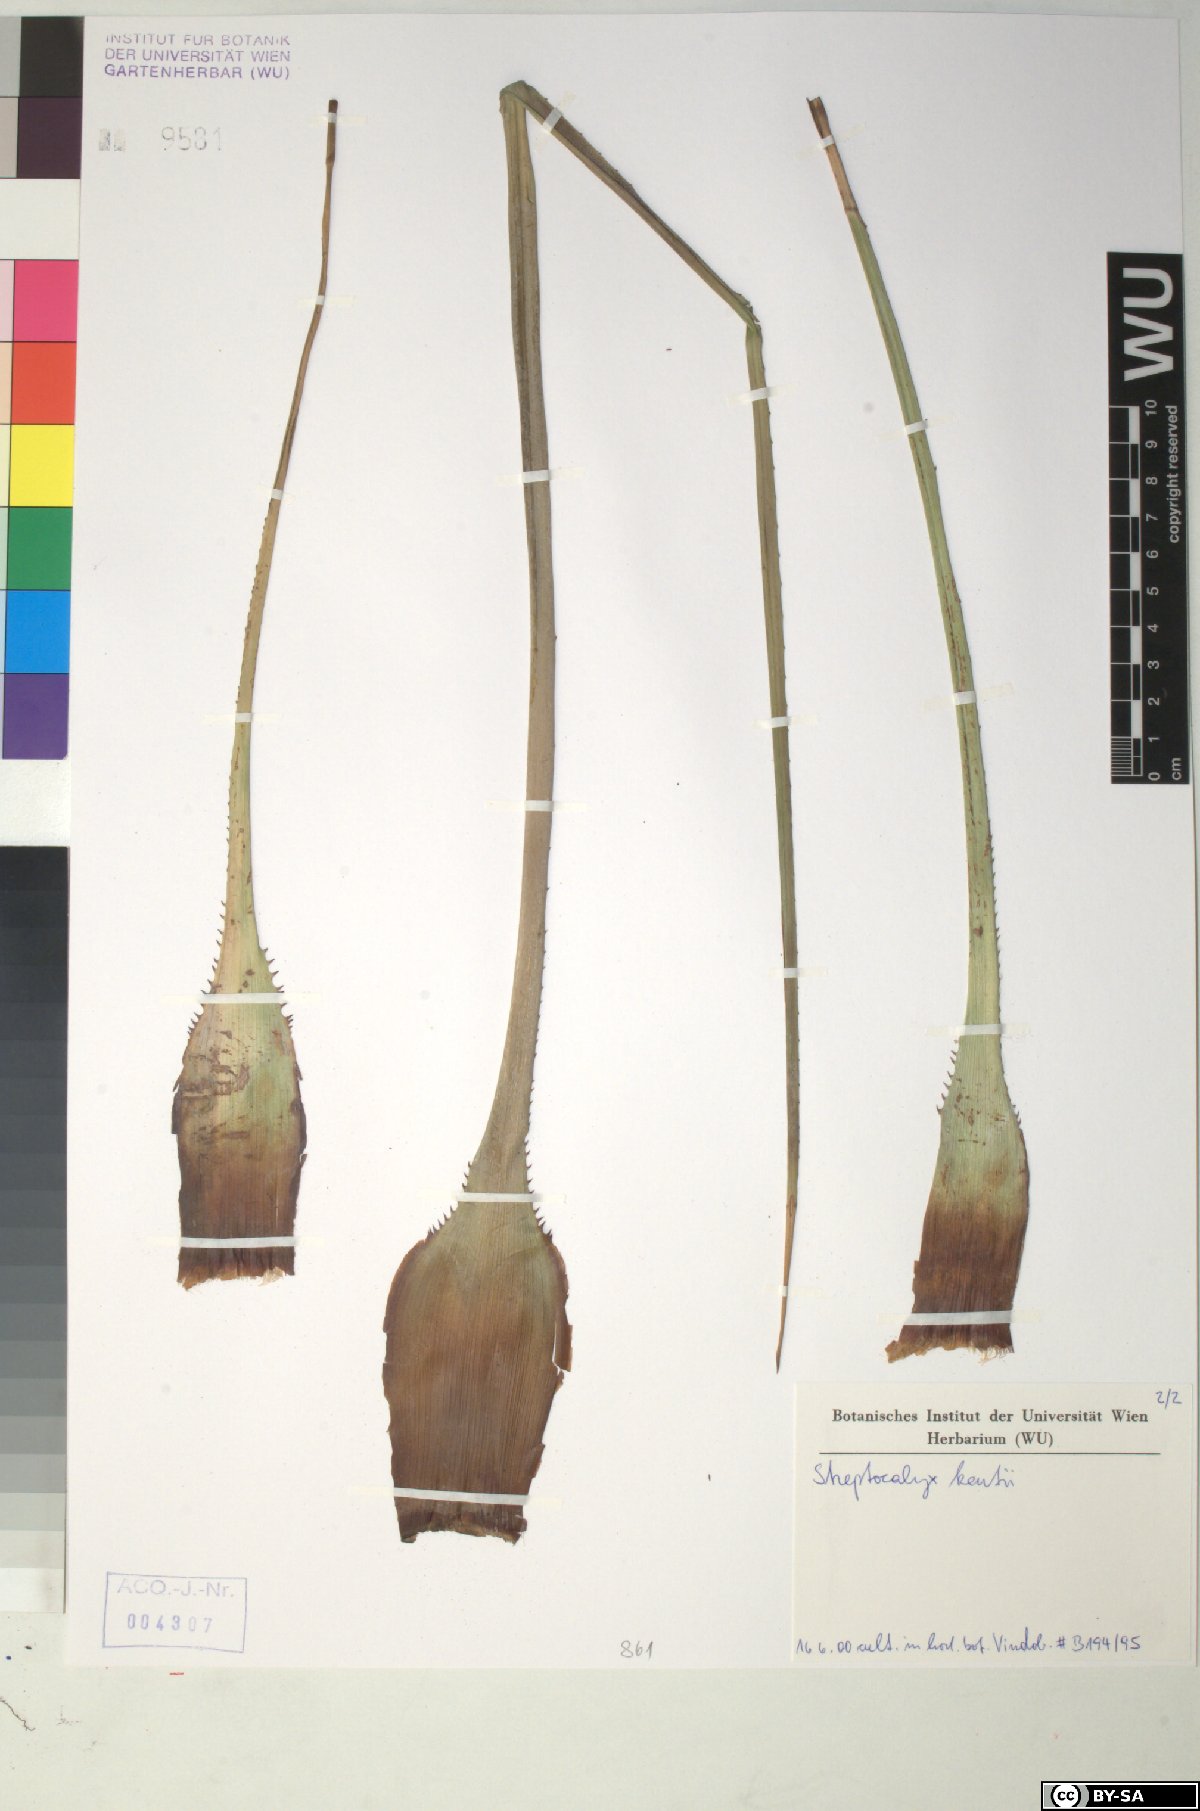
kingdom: Plantae
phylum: Tracheophyta
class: Liliopsida
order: Poales
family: Bromeliaceae
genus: Aechmea
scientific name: Aechmea
